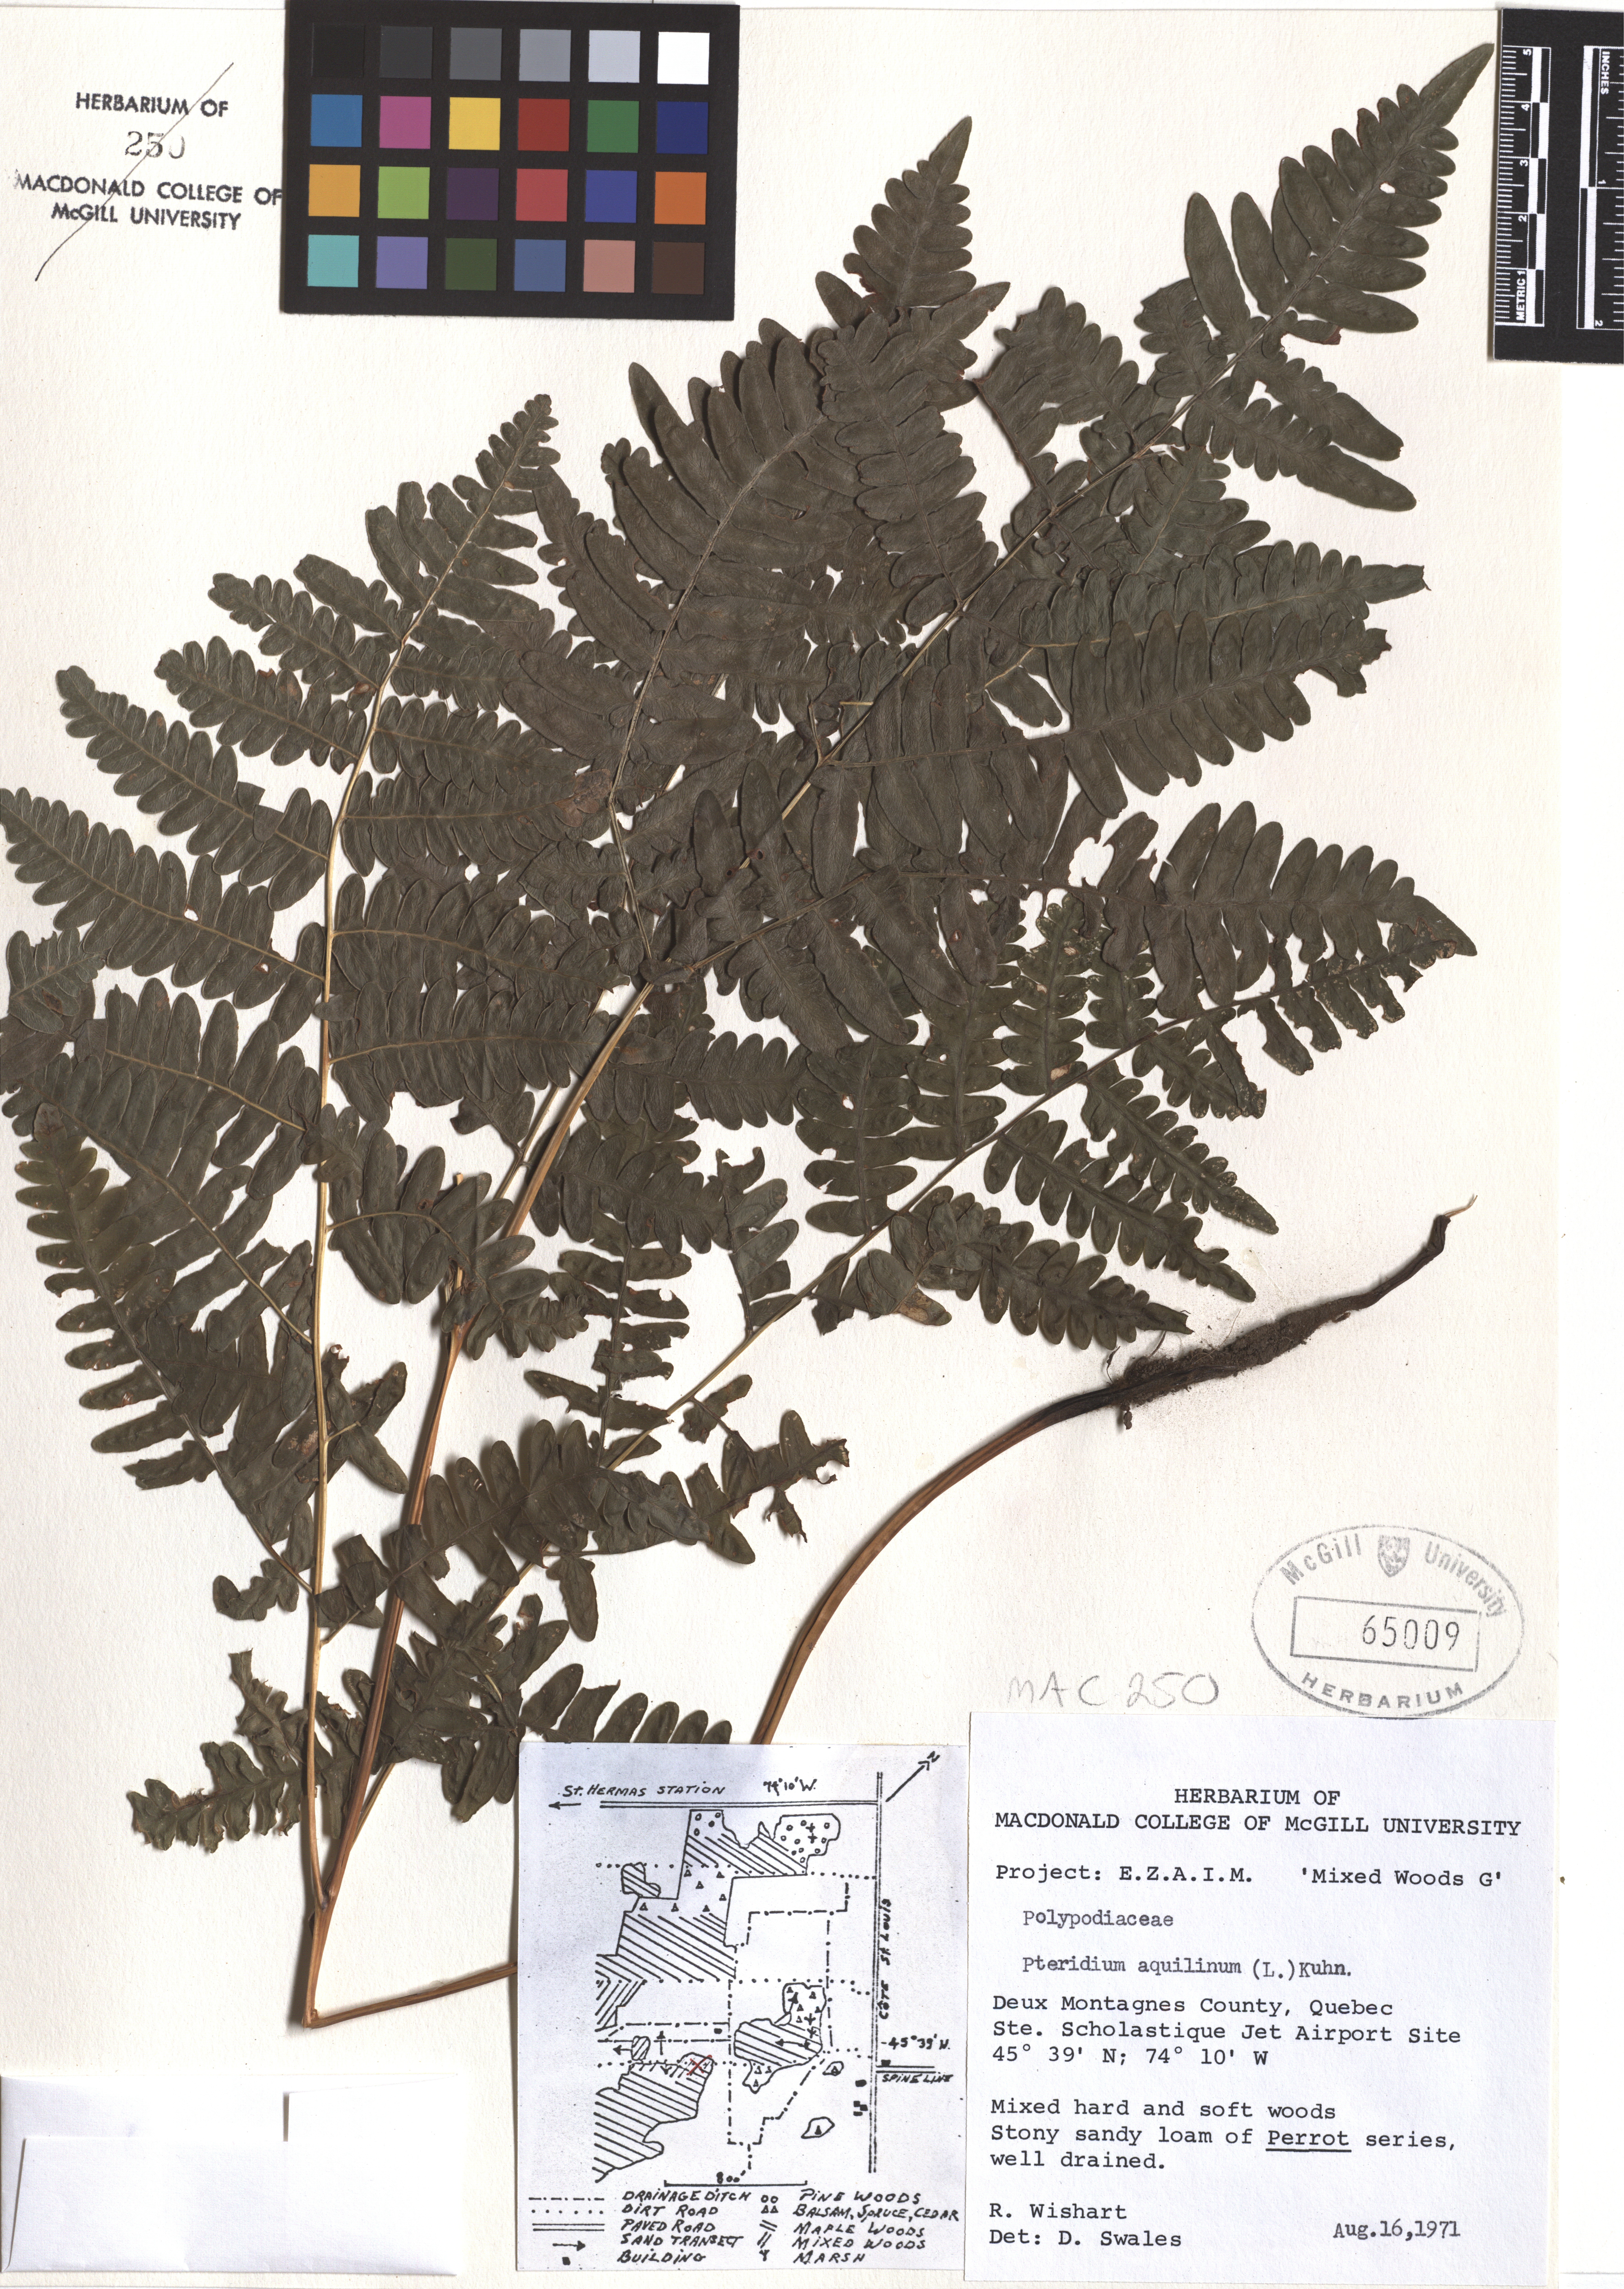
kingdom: Plantae
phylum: Tracheophyta
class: Polypodiopsida
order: Polypodiales
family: Dennstaedtiaceae
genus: Pteridium
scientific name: Pteridium aquilinum
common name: Bracken
